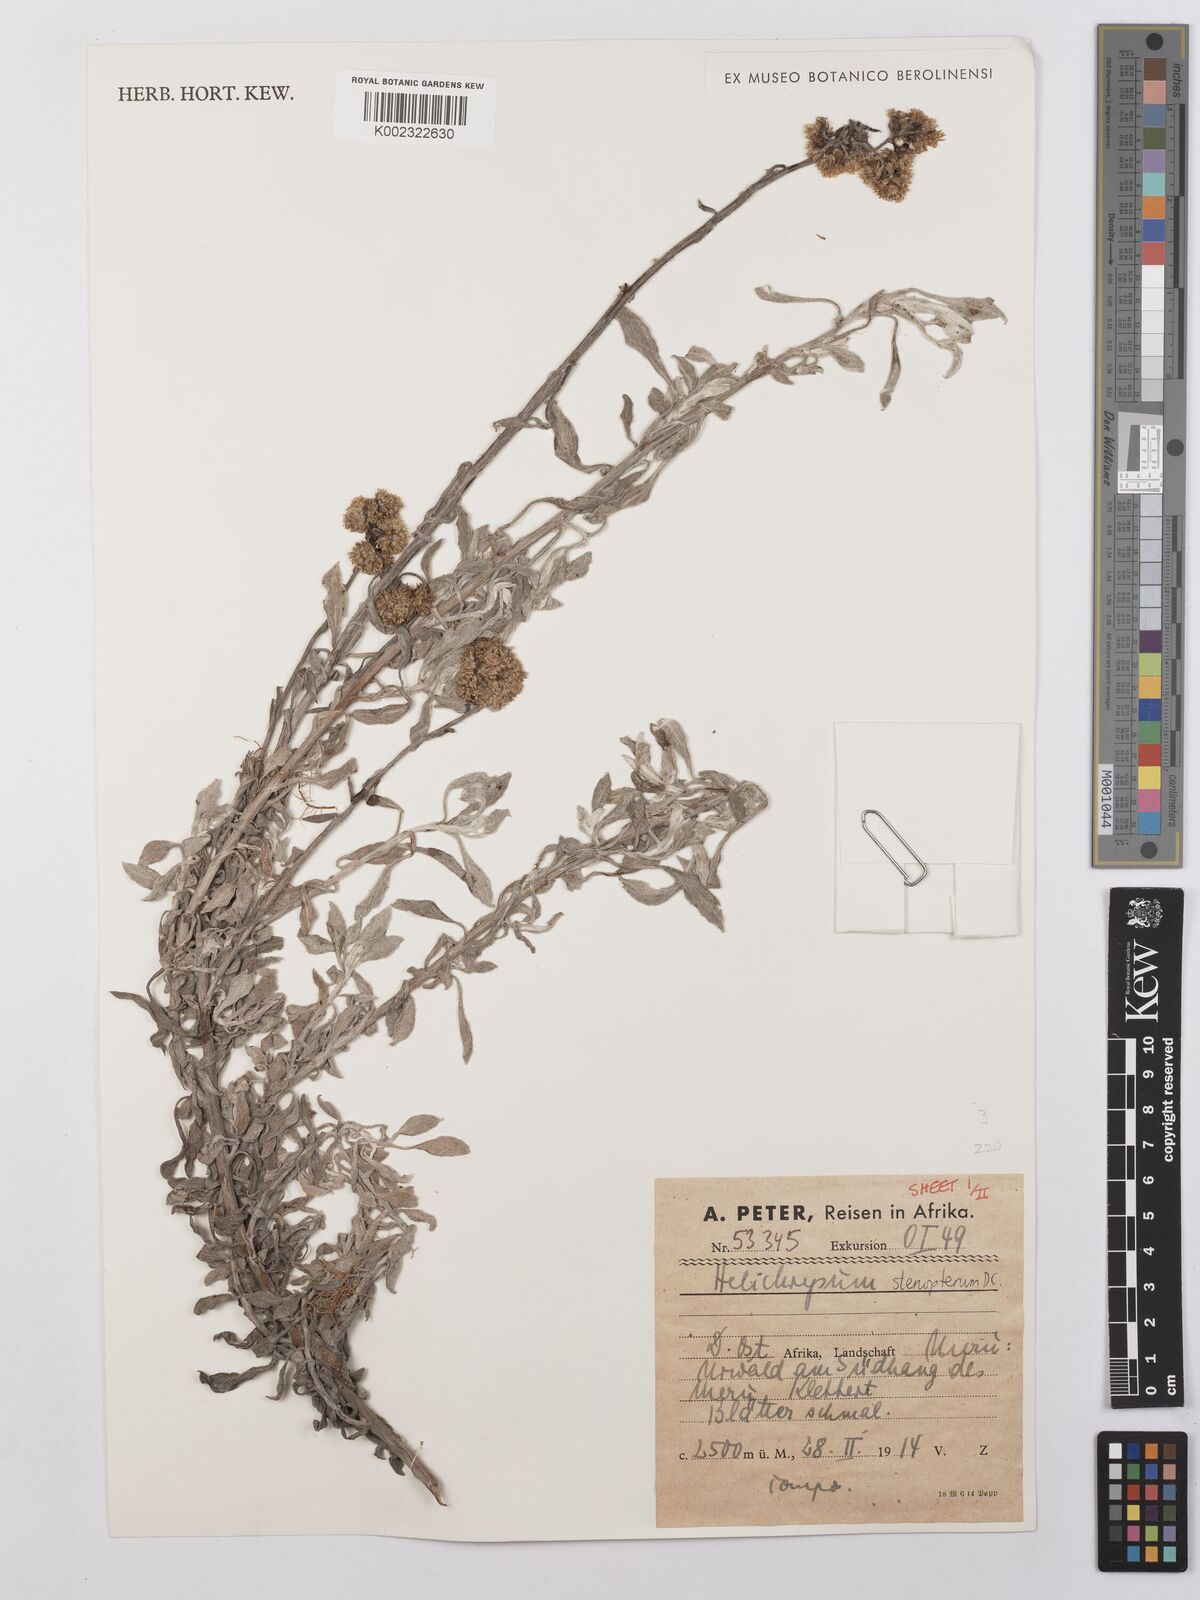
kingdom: Plantae
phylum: Tracheophyta
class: Magnoliopsida
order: Asterales
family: Asteraceae
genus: Helichrysum
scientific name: Helichrysum stenopterum
